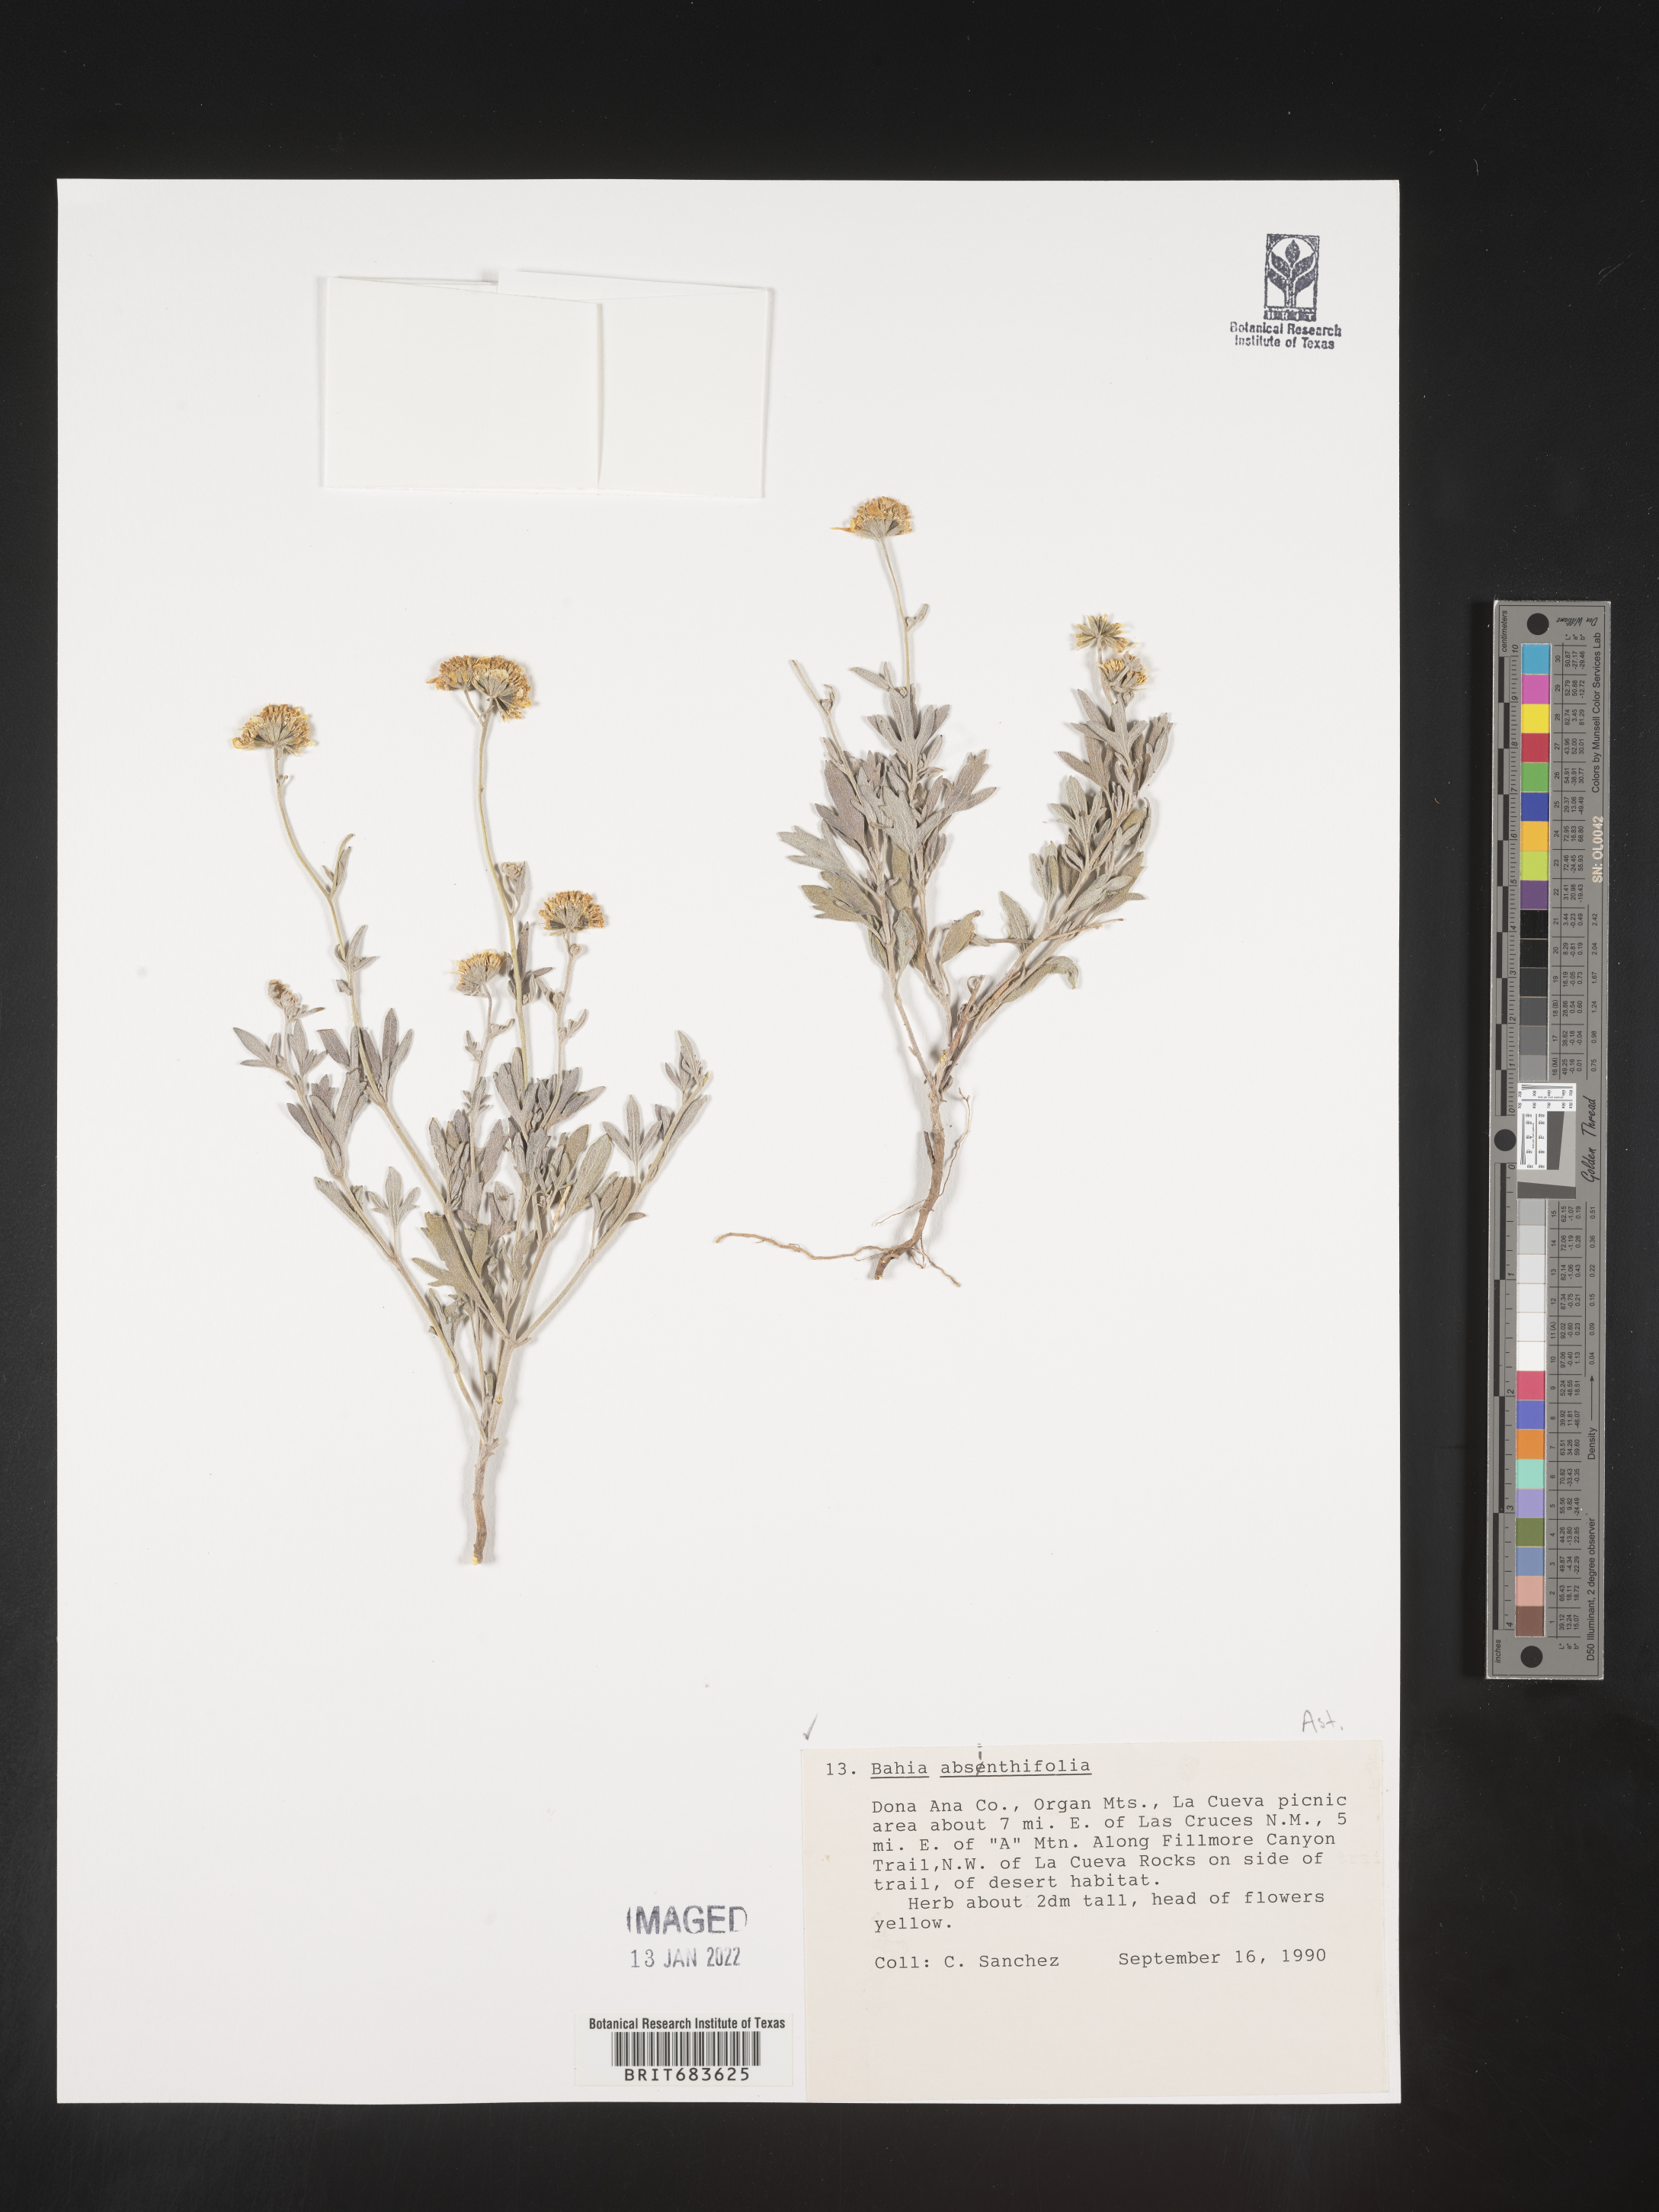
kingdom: Plantae
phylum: Tracheophyta
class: Magnoliopsida
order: Asterales
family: Asteraceae
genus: Picradeniopsis
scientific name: Picradeniopsis absinthifolia
